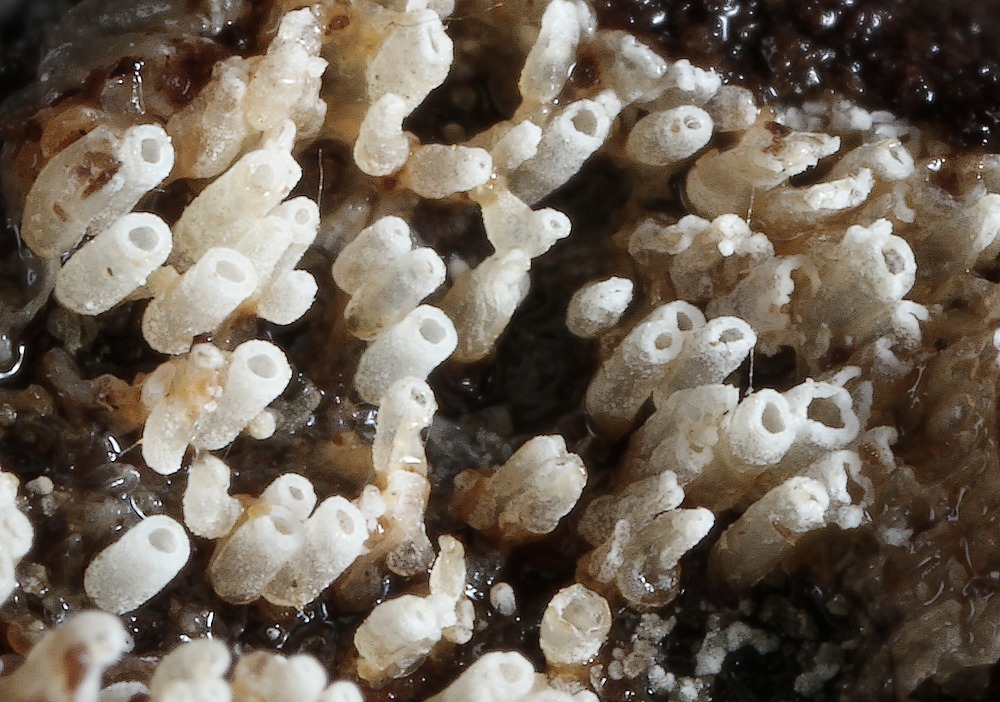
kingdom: Fungi
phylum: Basidiomycota
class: Agaricomycetes
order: Agaricales
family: Marasmiaceae
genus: Henningsomyces
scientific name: Henningsomyces candidus
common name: glat hængerør
